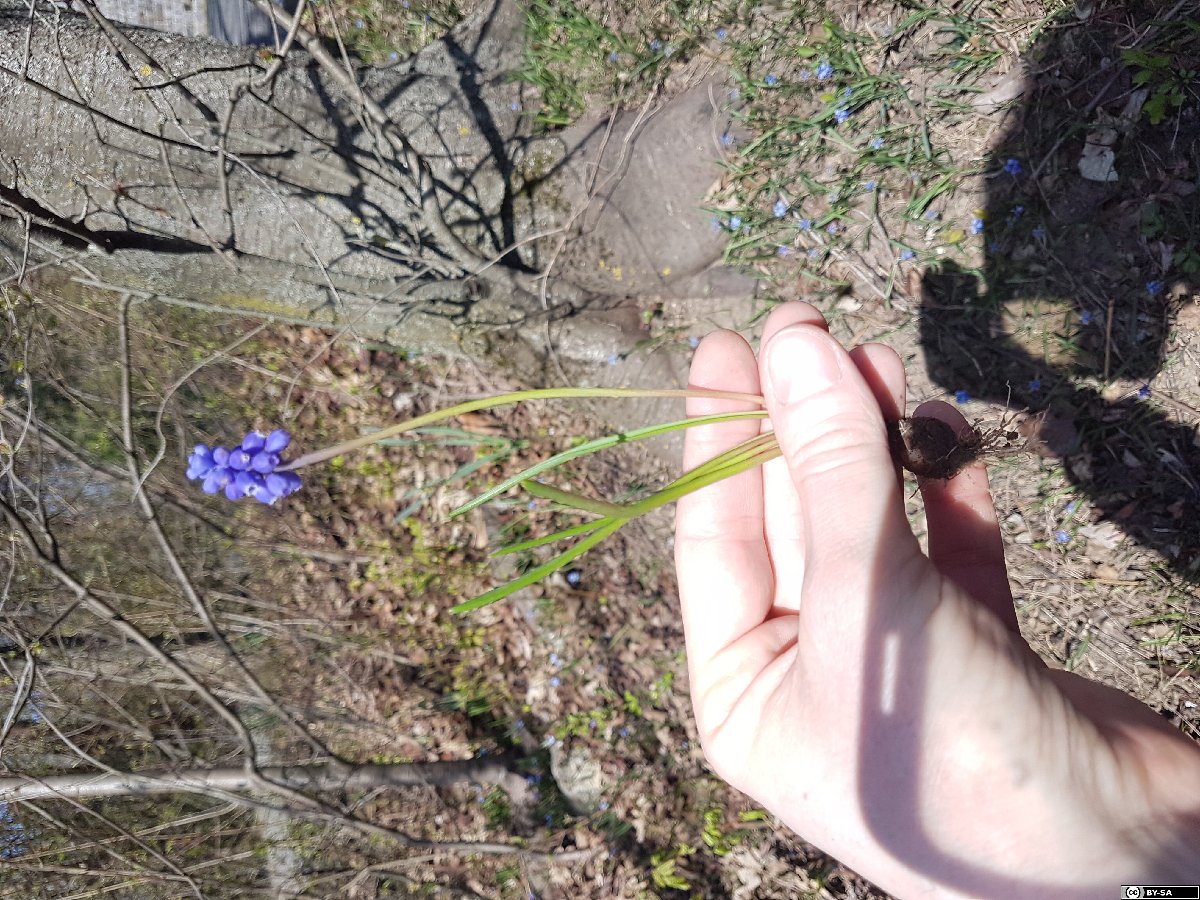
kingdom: Plantae
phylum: Tracheophyta
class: Liliopsida
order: Asparagales
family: Asparagaceae
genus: Muscari
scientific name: Muscari armeniacum
